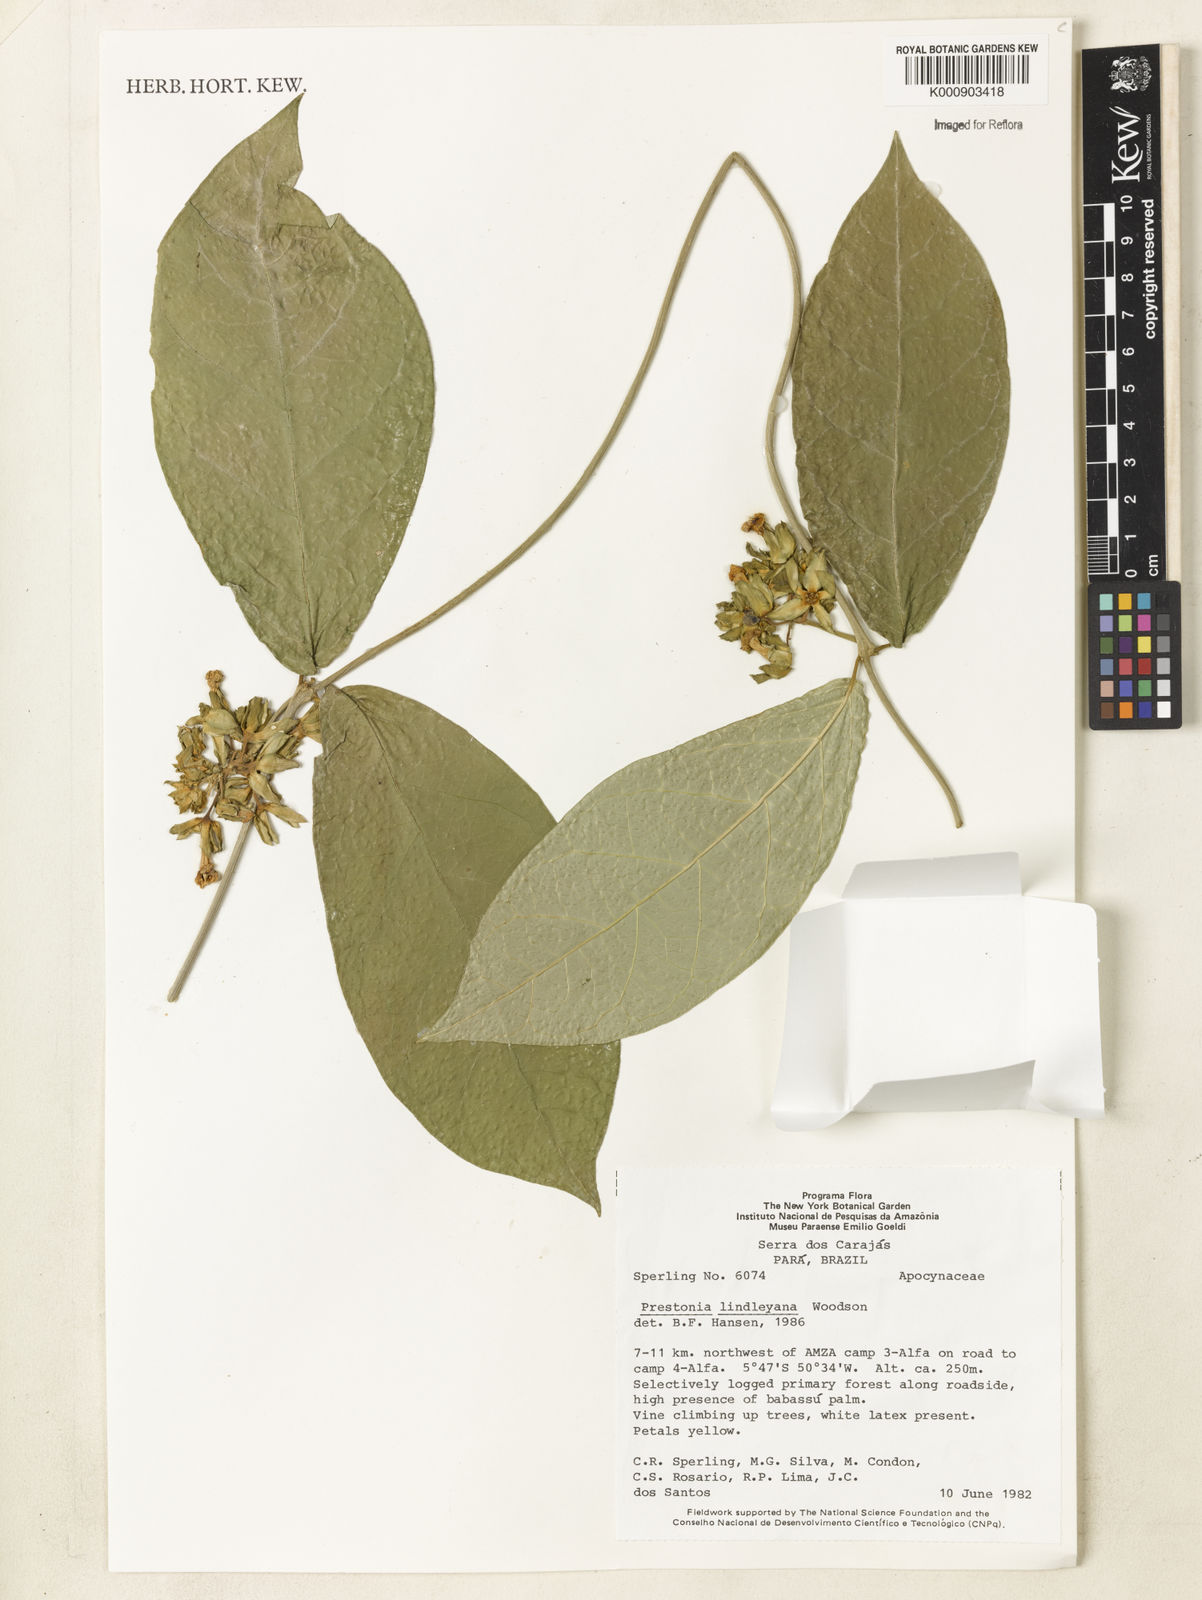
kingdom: Plantae
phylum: Tracheophyta
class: Magnoliopsida
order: Gentianales
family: Apocynaceae
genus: Prestonia
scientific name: Prestonia lindleyana
